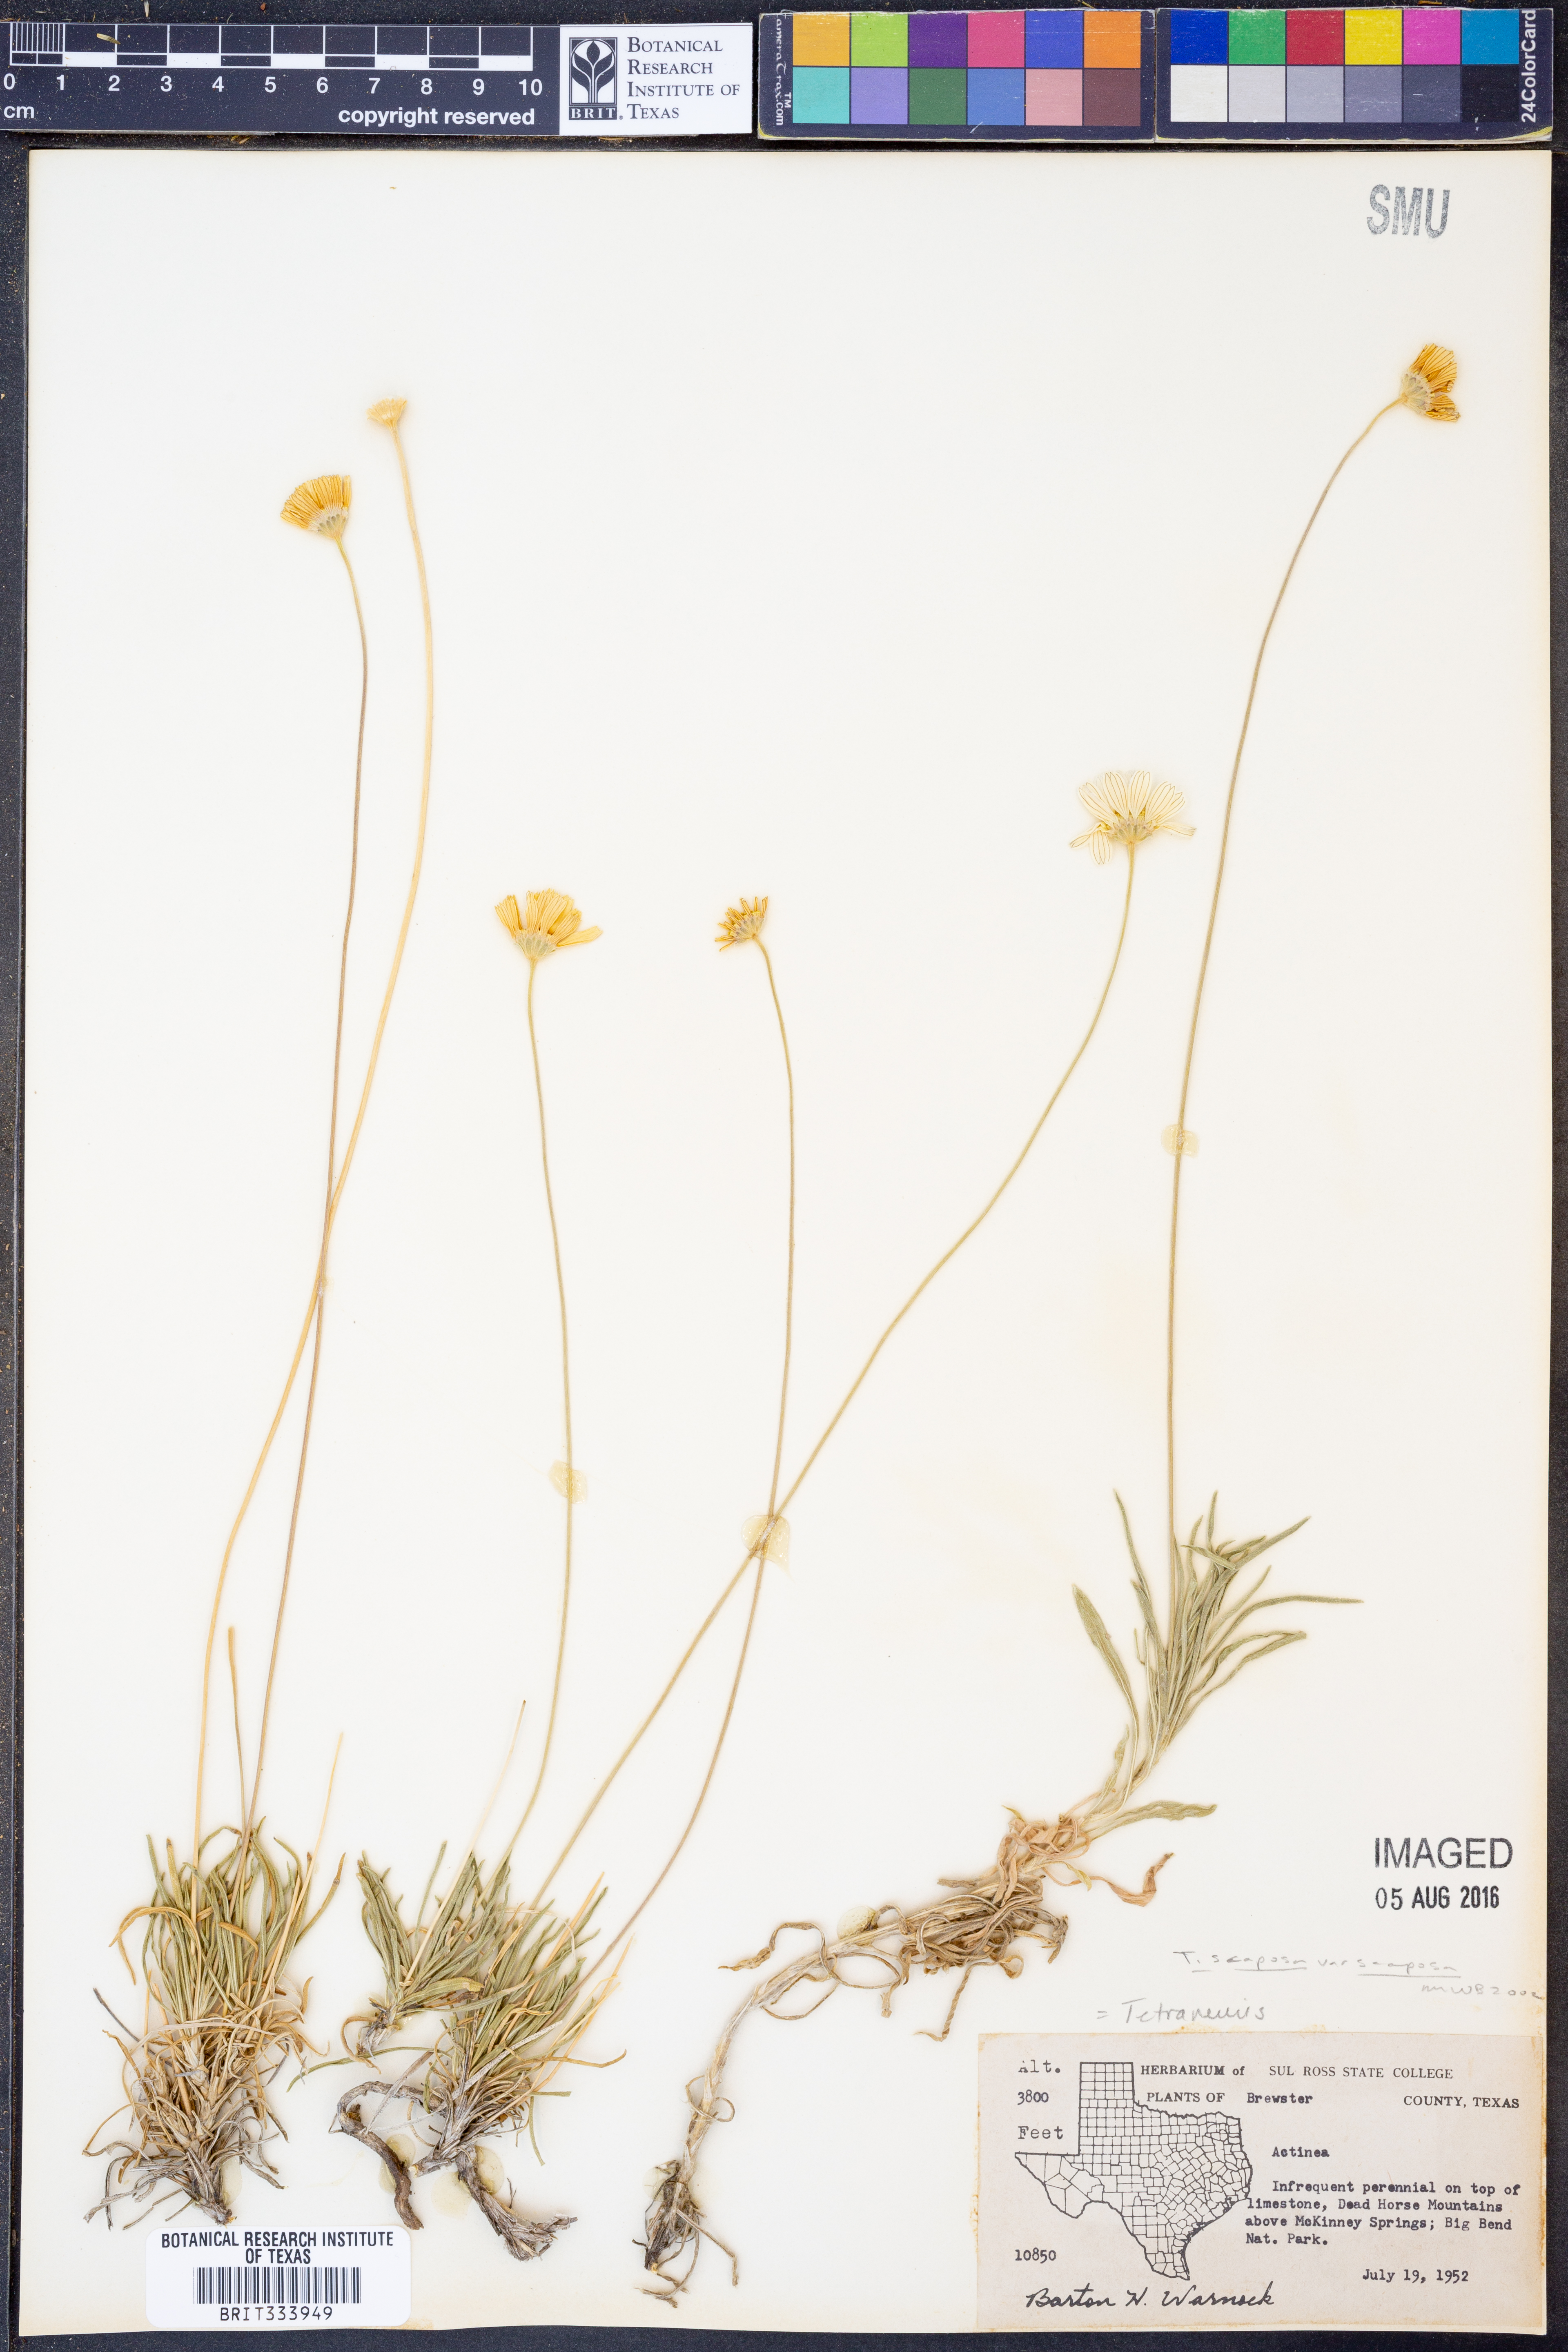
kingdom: Plantae
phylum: Tracheophyta
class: Magnoliopsida
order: Asterales
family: Asteraceae
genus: Tetraneuris
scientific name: Tetraneuris scaposa
